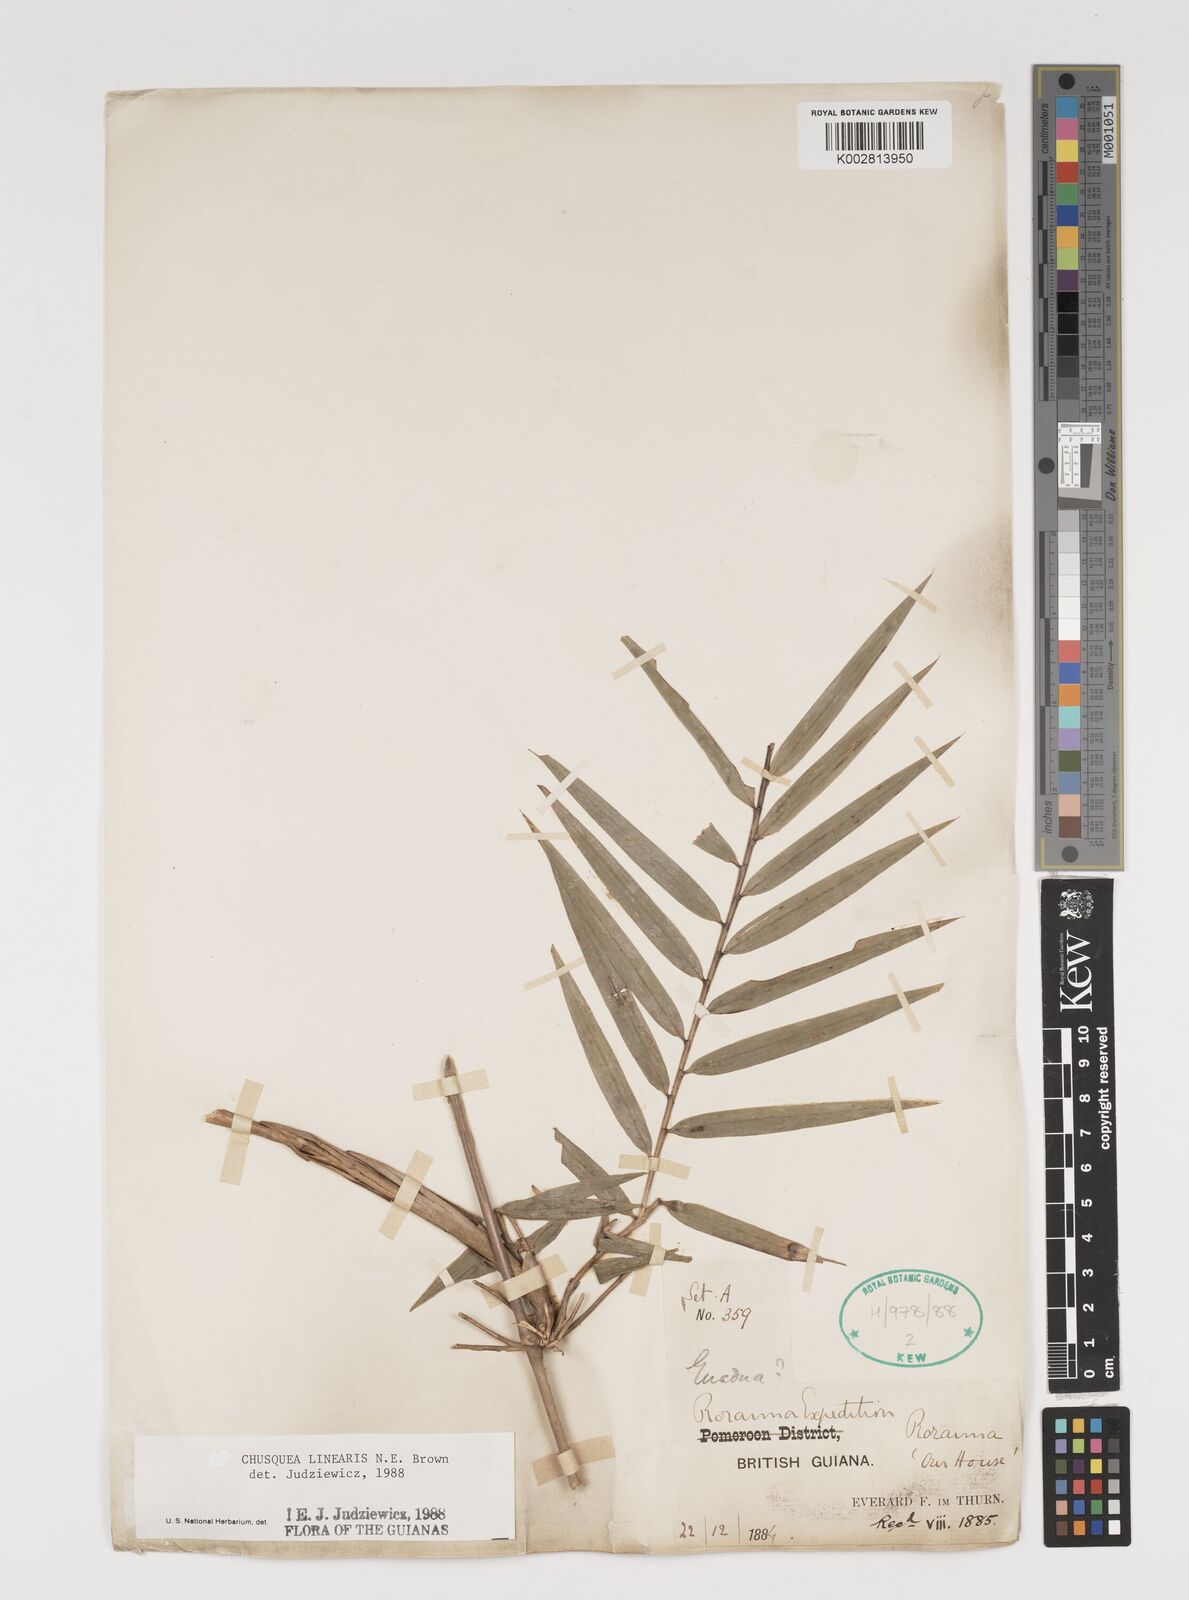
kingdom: Plantae
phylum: Tracheophyta
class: Liliopsida
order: Poales
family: Poaceae
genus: Chusquea
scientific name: Chusquea linearis
